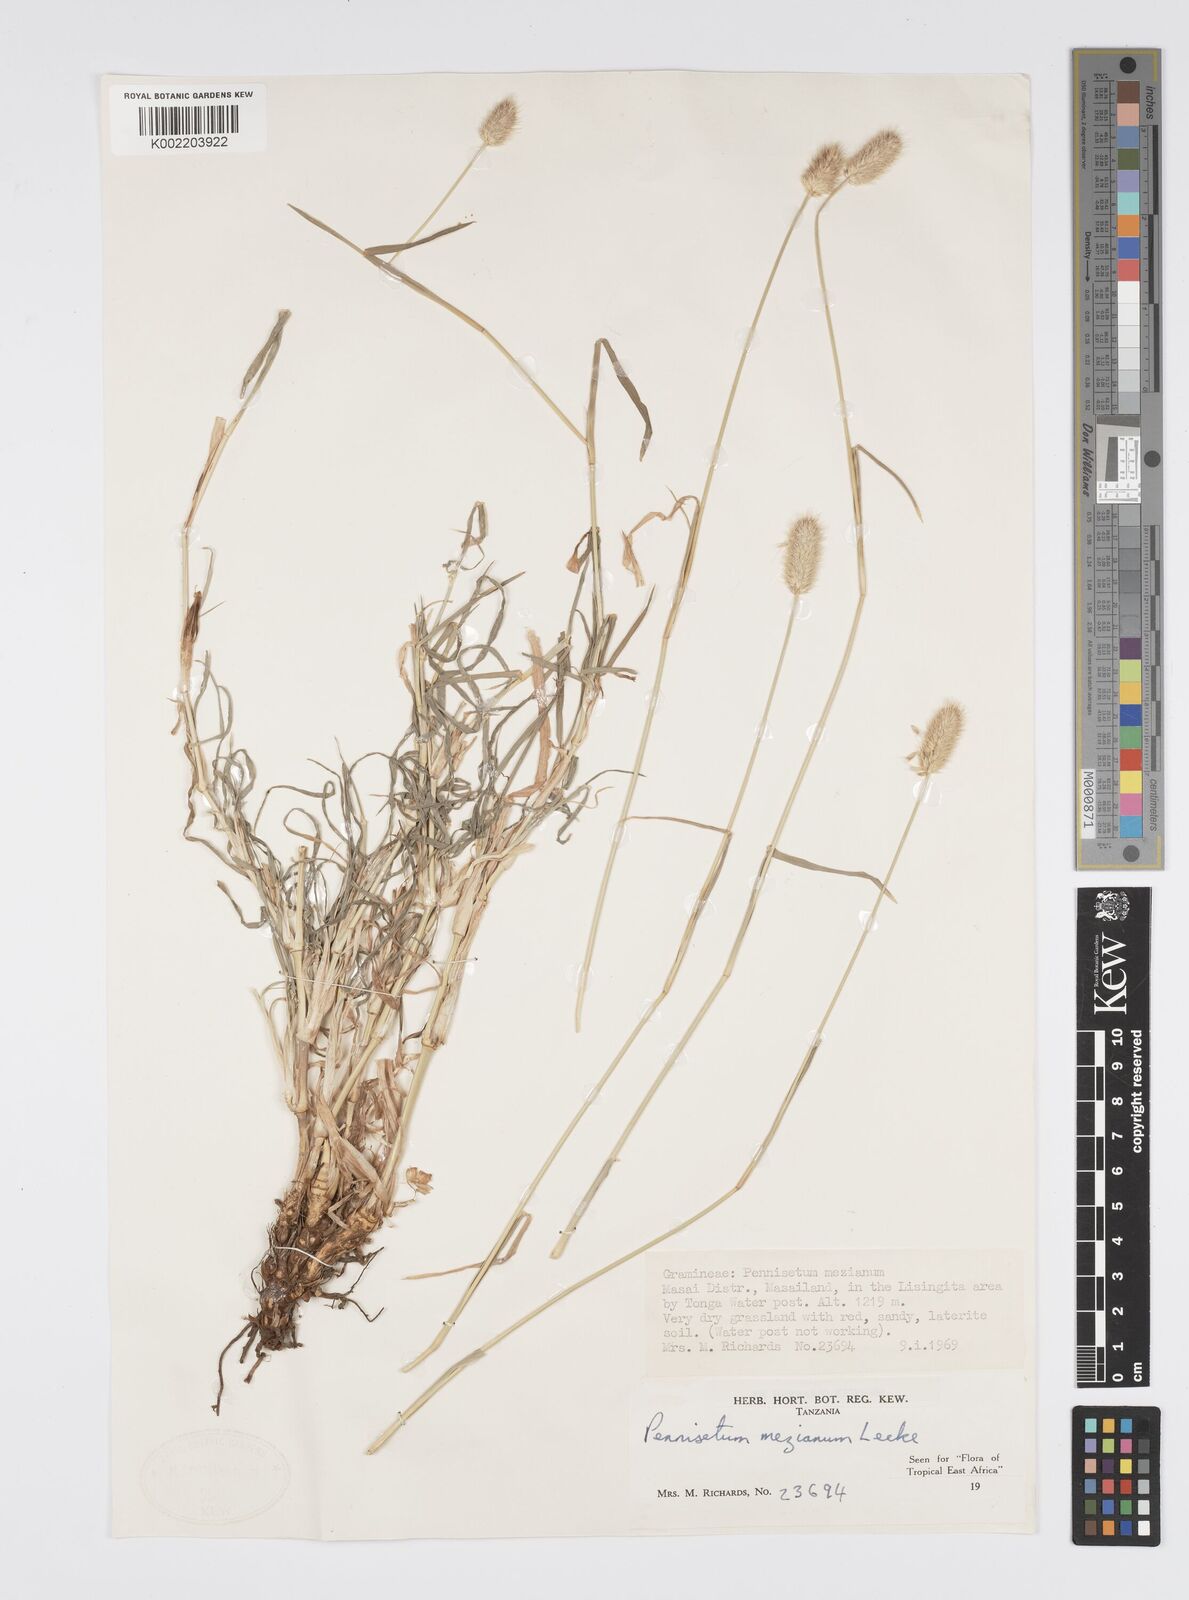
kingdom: Plantae
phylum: Tracheophyta
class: Liliopsida
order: Poales
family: Poaceae
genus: Cenchrus
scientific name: Cenchrus mezianus
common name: Bamboo grass
